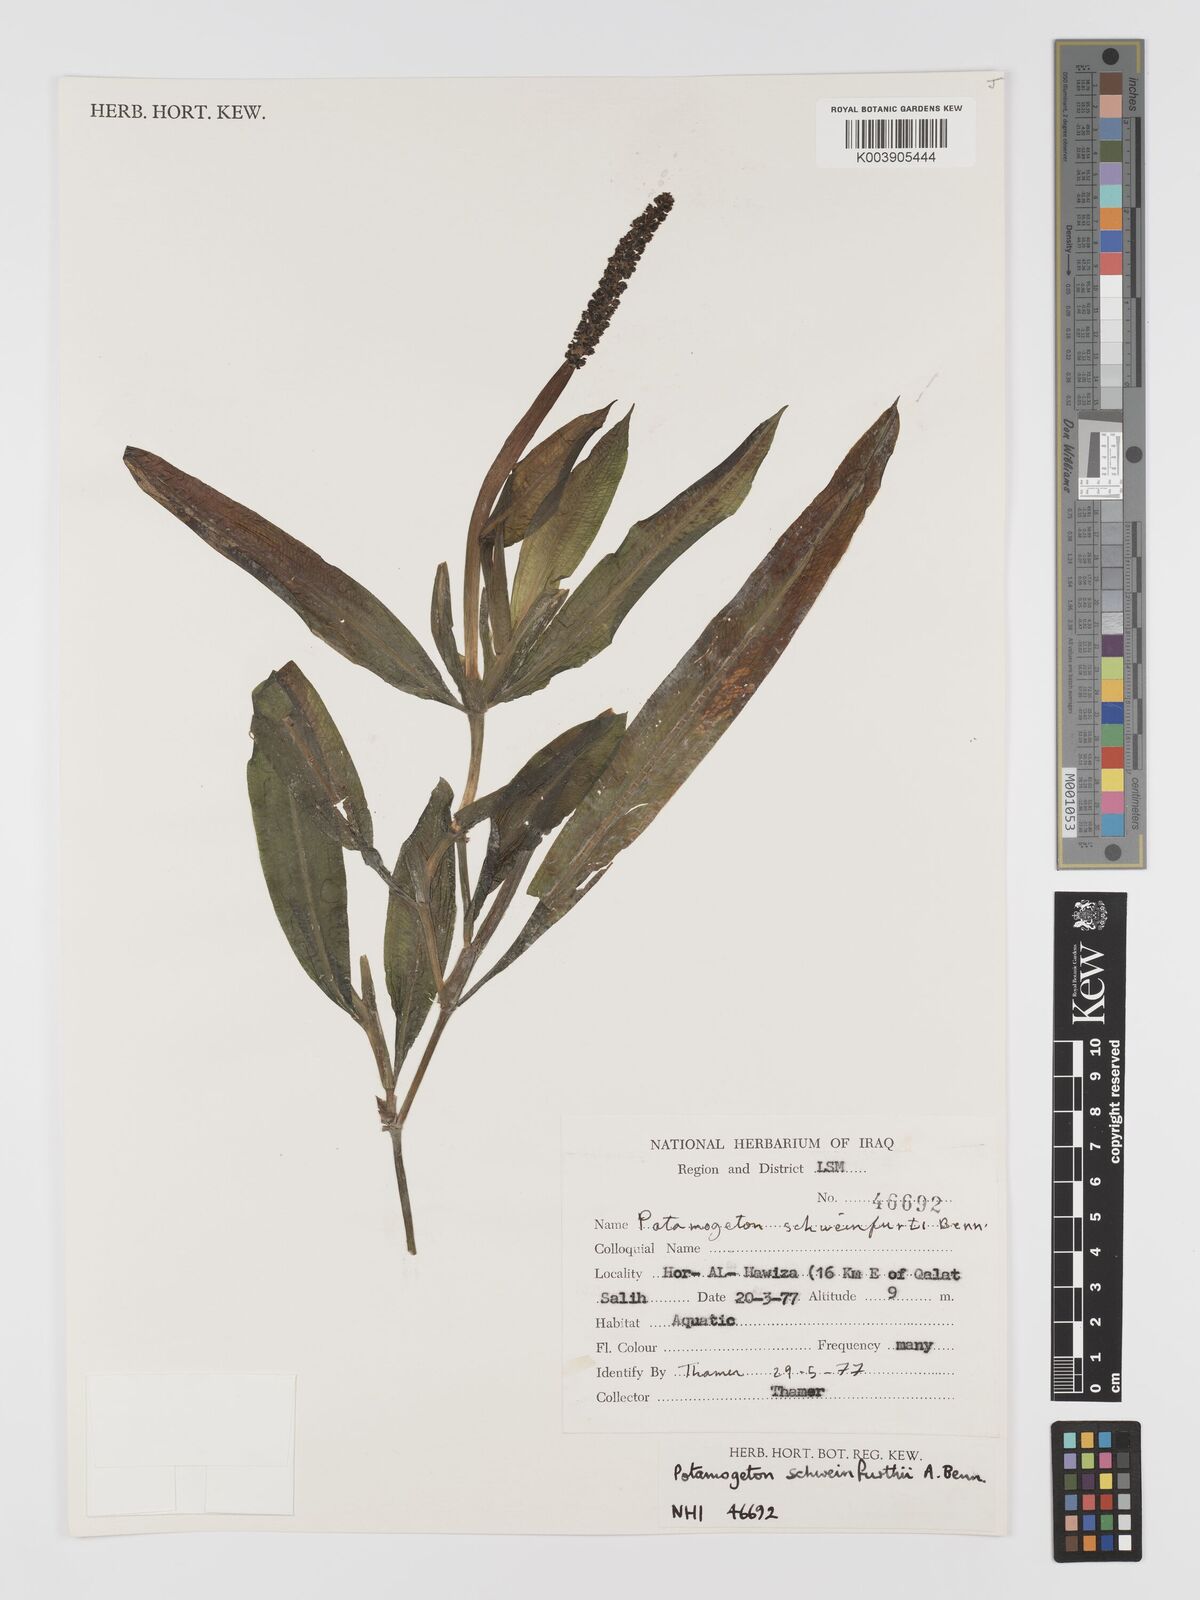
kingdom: Plantae
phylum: Tracheophyta
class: Liliopsida
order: Alismatales
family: Potamogetonaceae
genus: Potamogeton
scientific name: Potamogeton schweinfurthii
